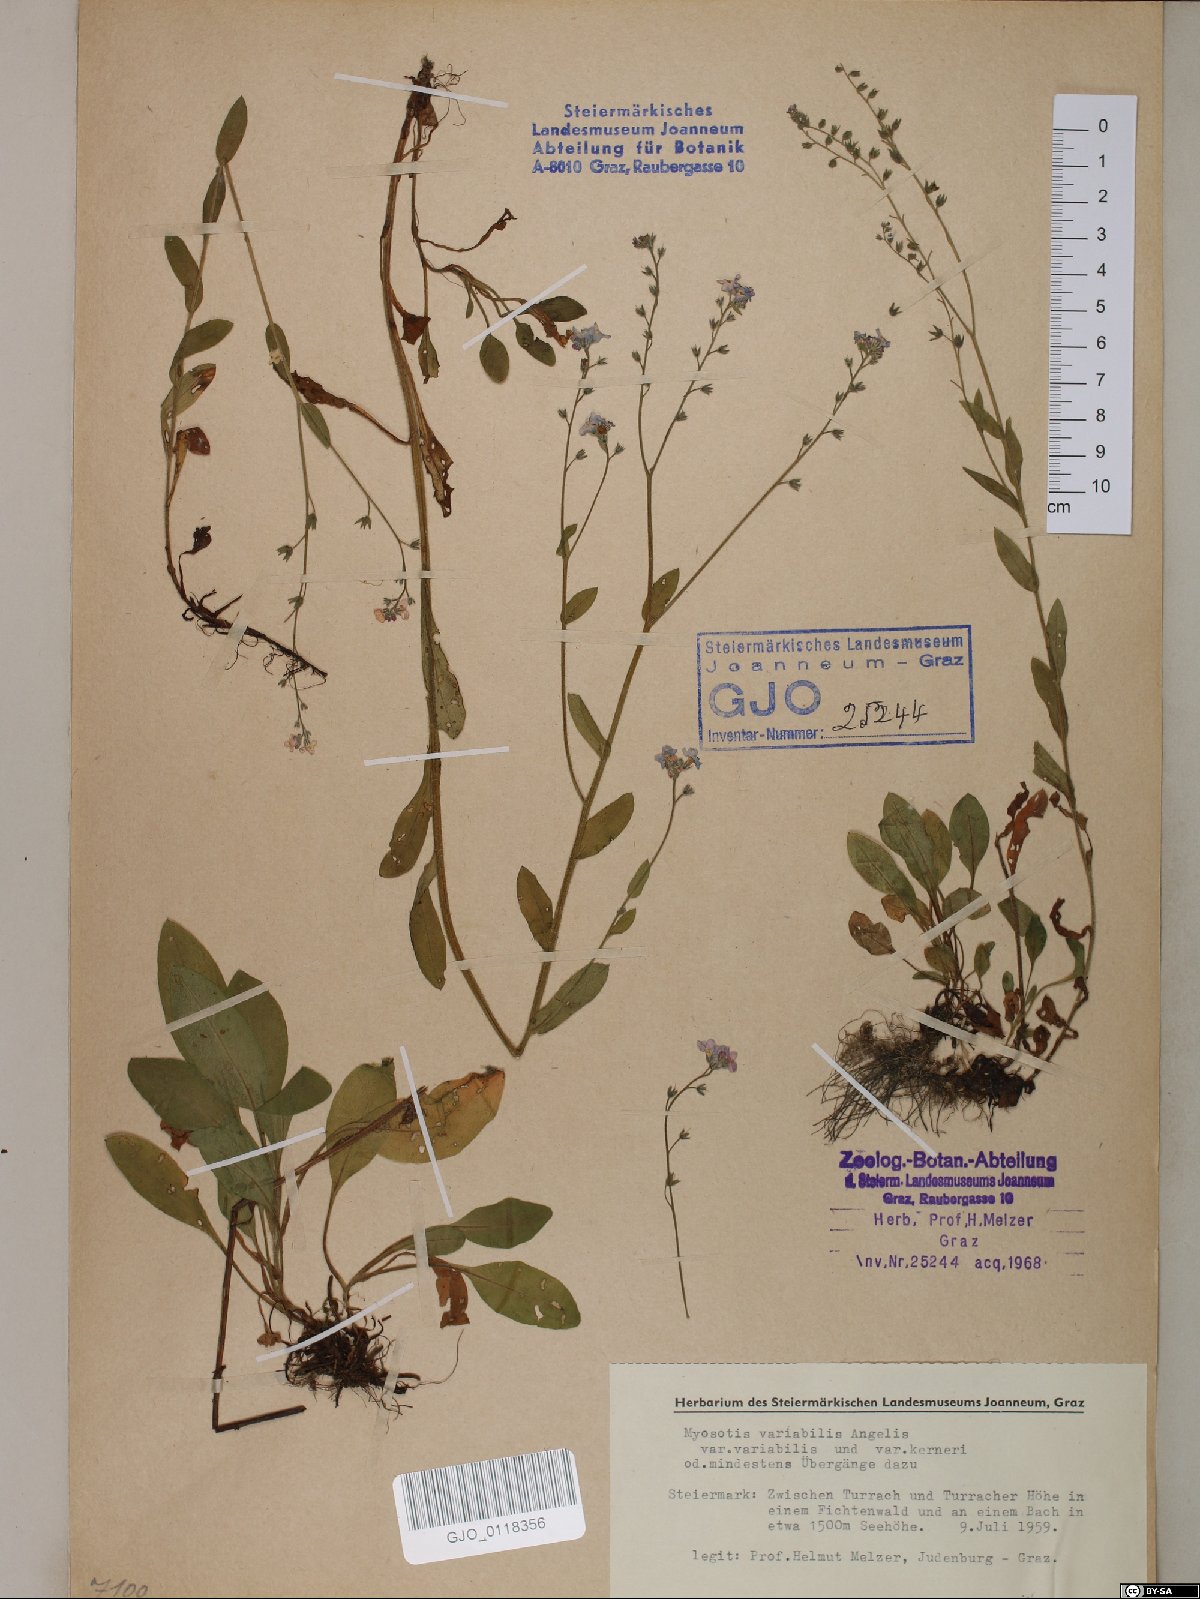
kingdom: Plantae
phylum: Tracheophyta
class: Magnoliopsida
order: Boraginales
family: Boraginaceae
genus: Myosotis
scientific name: Myosotis decumbens
